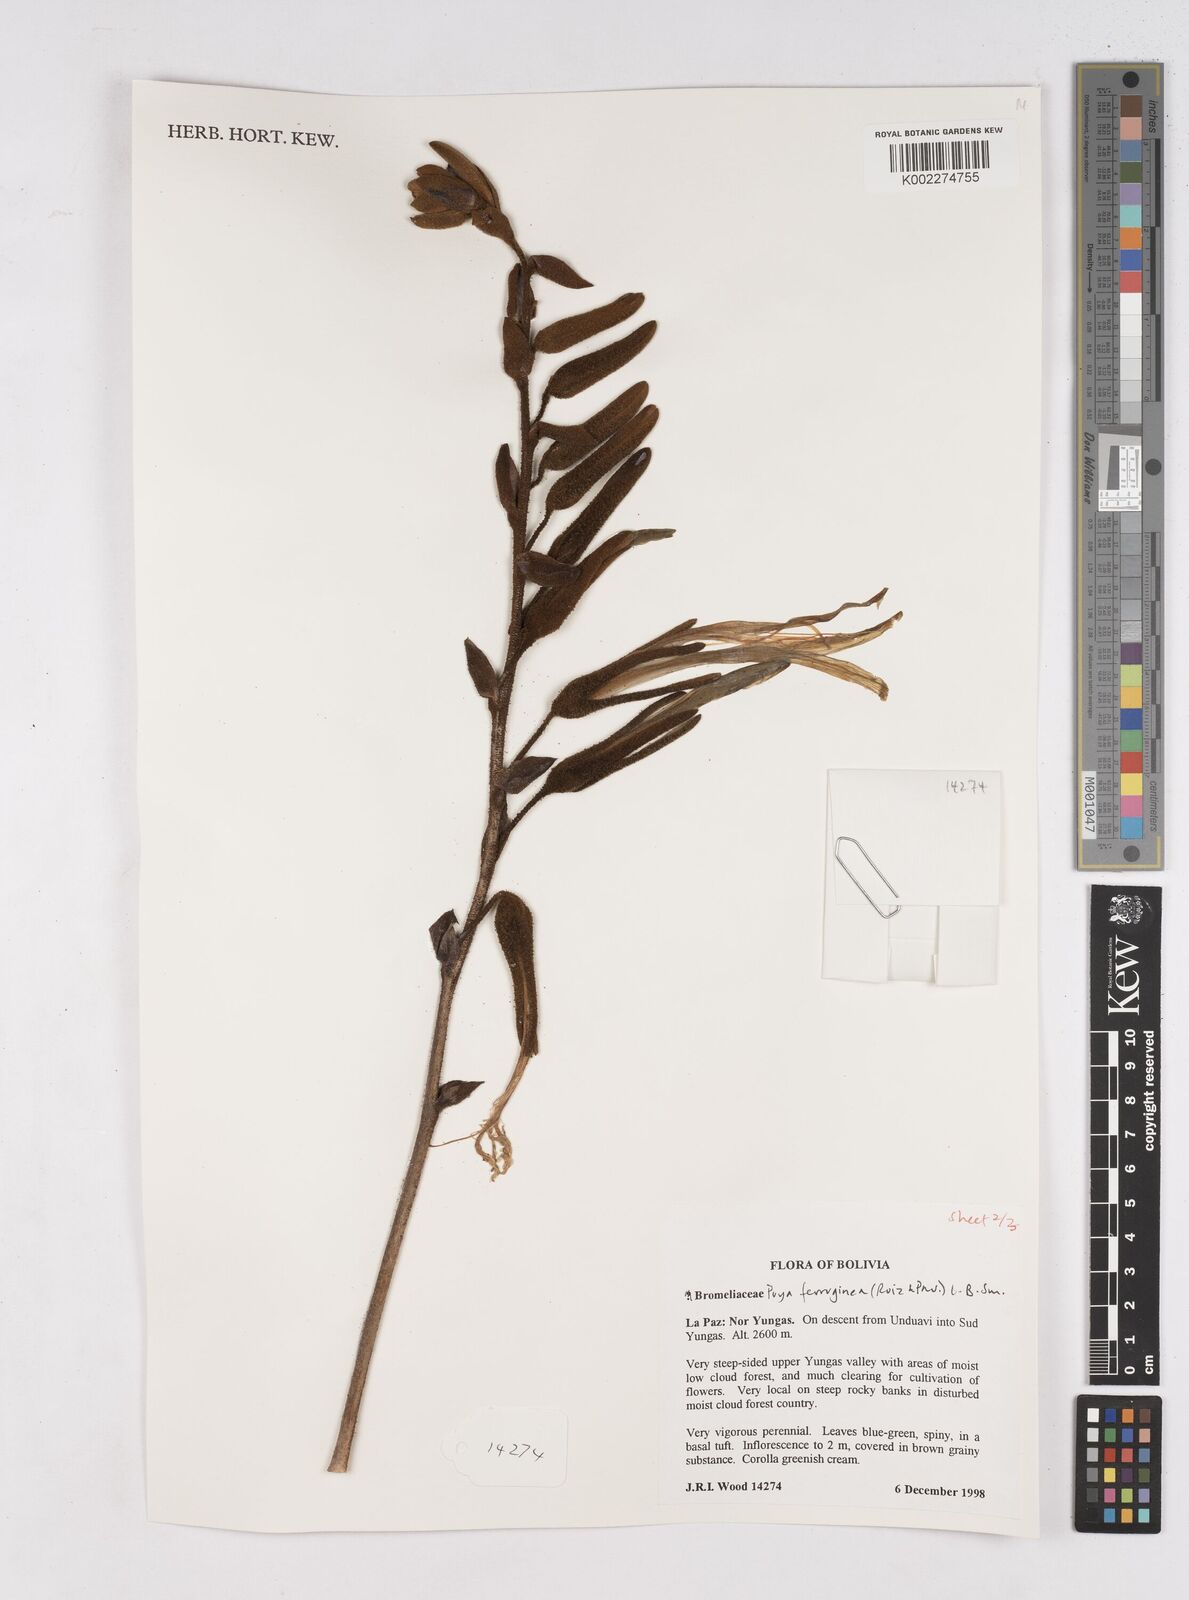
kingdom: Plantae
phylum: Tracheophyta
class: Liliopsida
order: Poales
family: Bromeliaceae
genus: Puya
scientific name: Puya ferruginea
